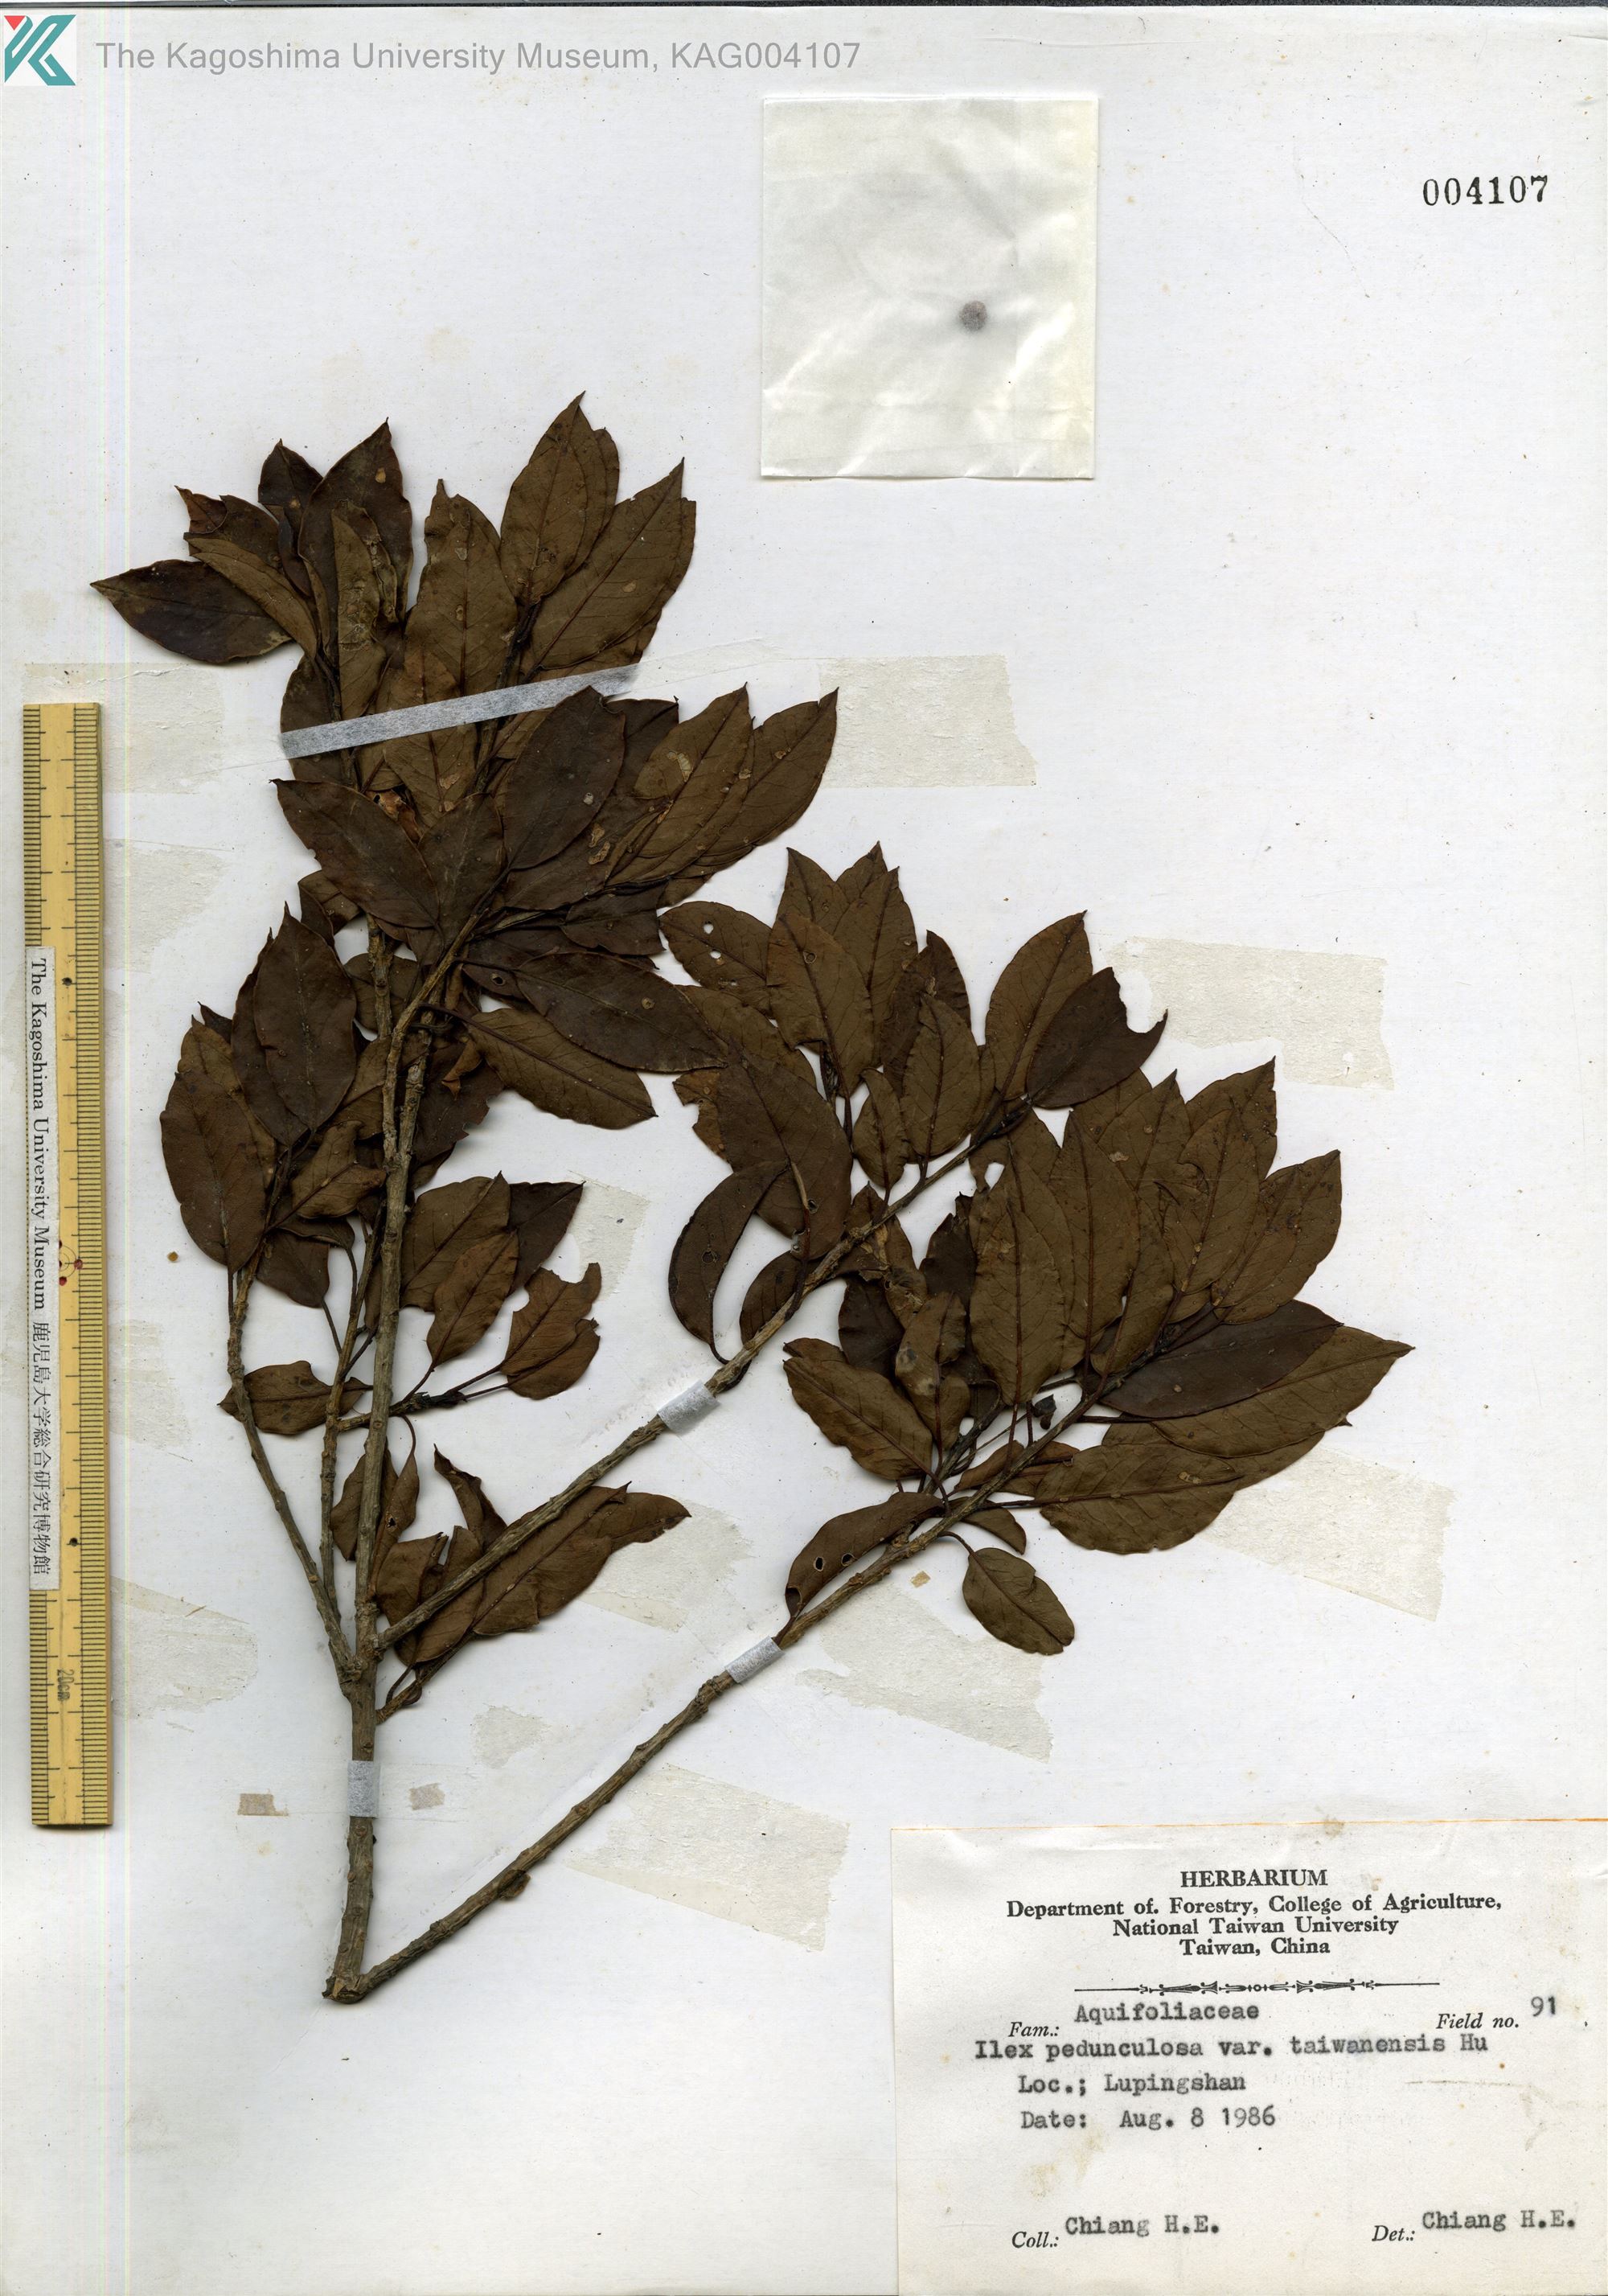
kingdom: Plantae
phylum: Tracheophyta
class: Magnoliopsida
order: Aquifoliales
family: Aquifoliaceae
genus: Ilex
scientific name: Ilex sugerokii
